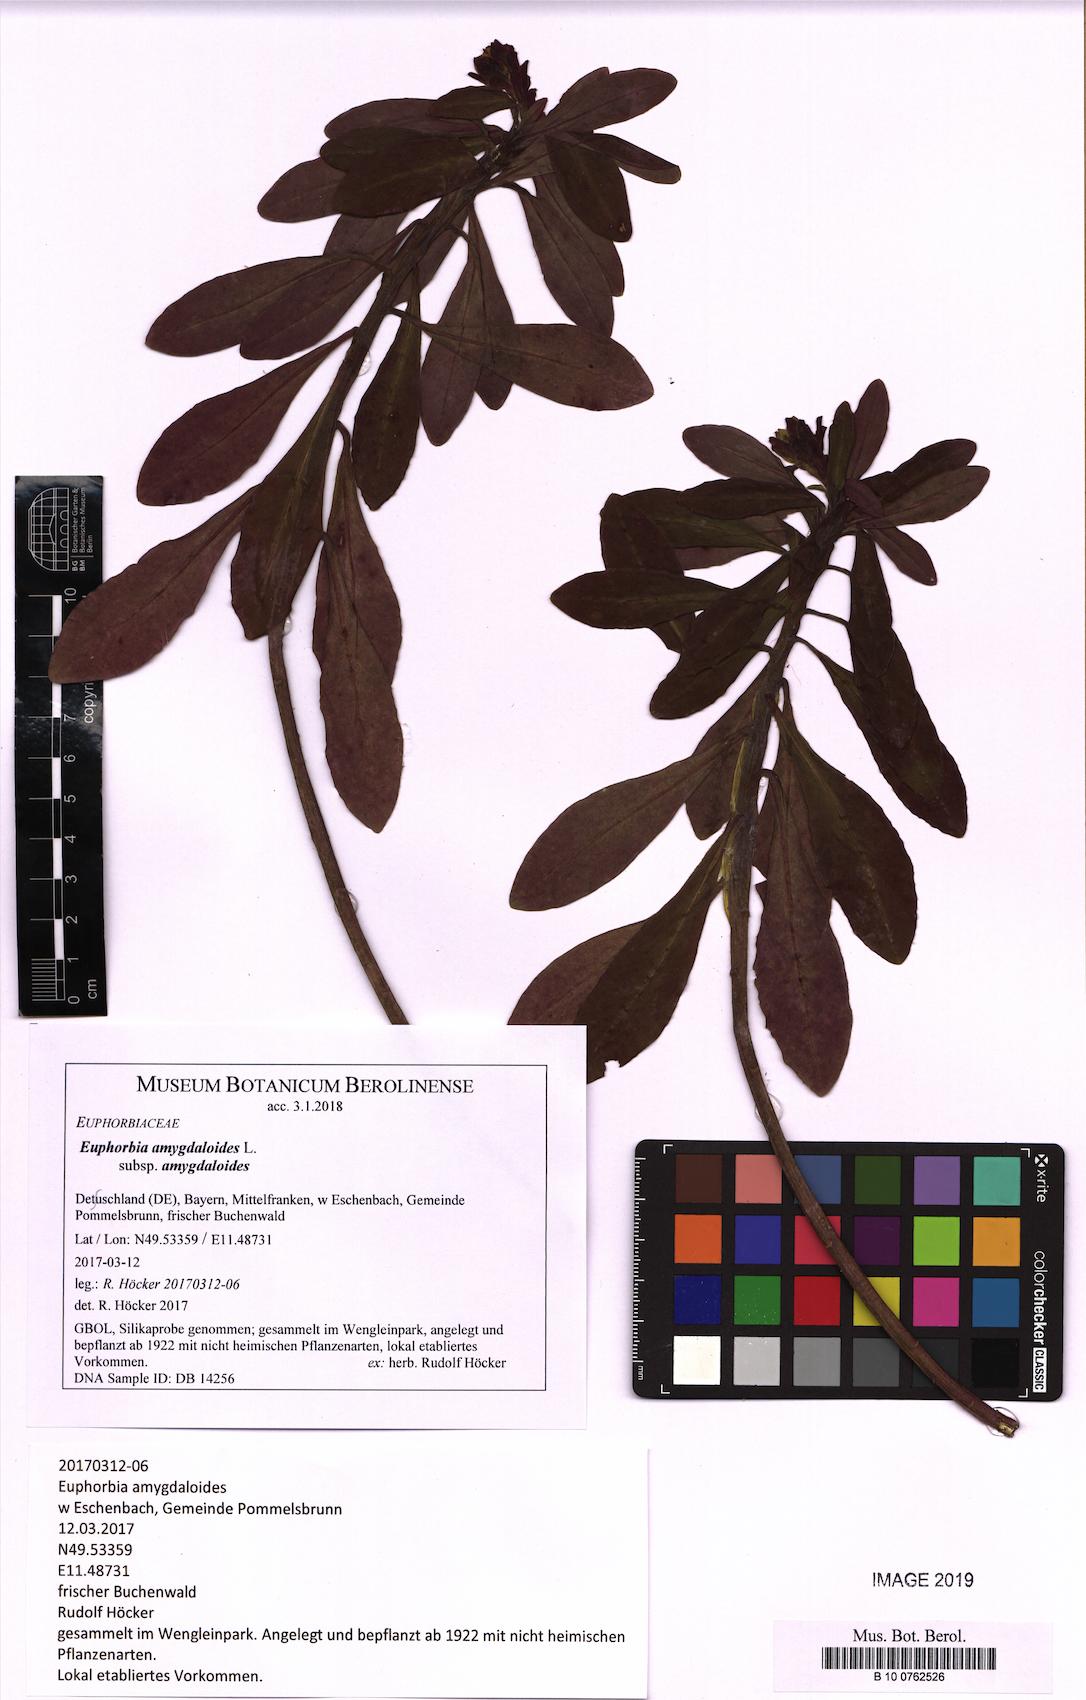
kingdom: Plantae
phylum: Tracheophyta
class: Magnoliopsida
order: Malpighiales
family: Euphorbiaceae
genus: Euphorbia
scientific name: Euphorbia amygdaloides
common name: Wood spurge
